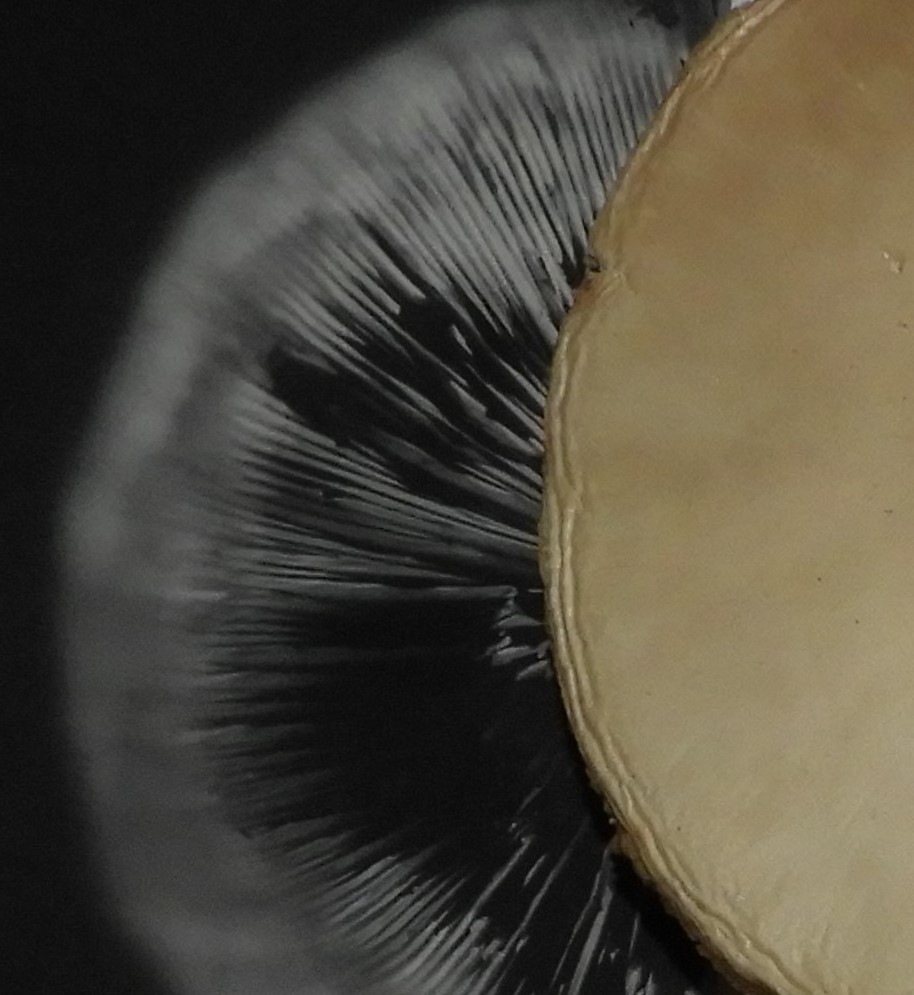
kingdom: Fungi
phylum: Basidiomycota
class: Agaricomycetes
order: Agaricales
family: Agaricaceae
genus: Leucoagaricus
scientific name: Leucoagaricus leucothites
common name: rosabladet silkehat
